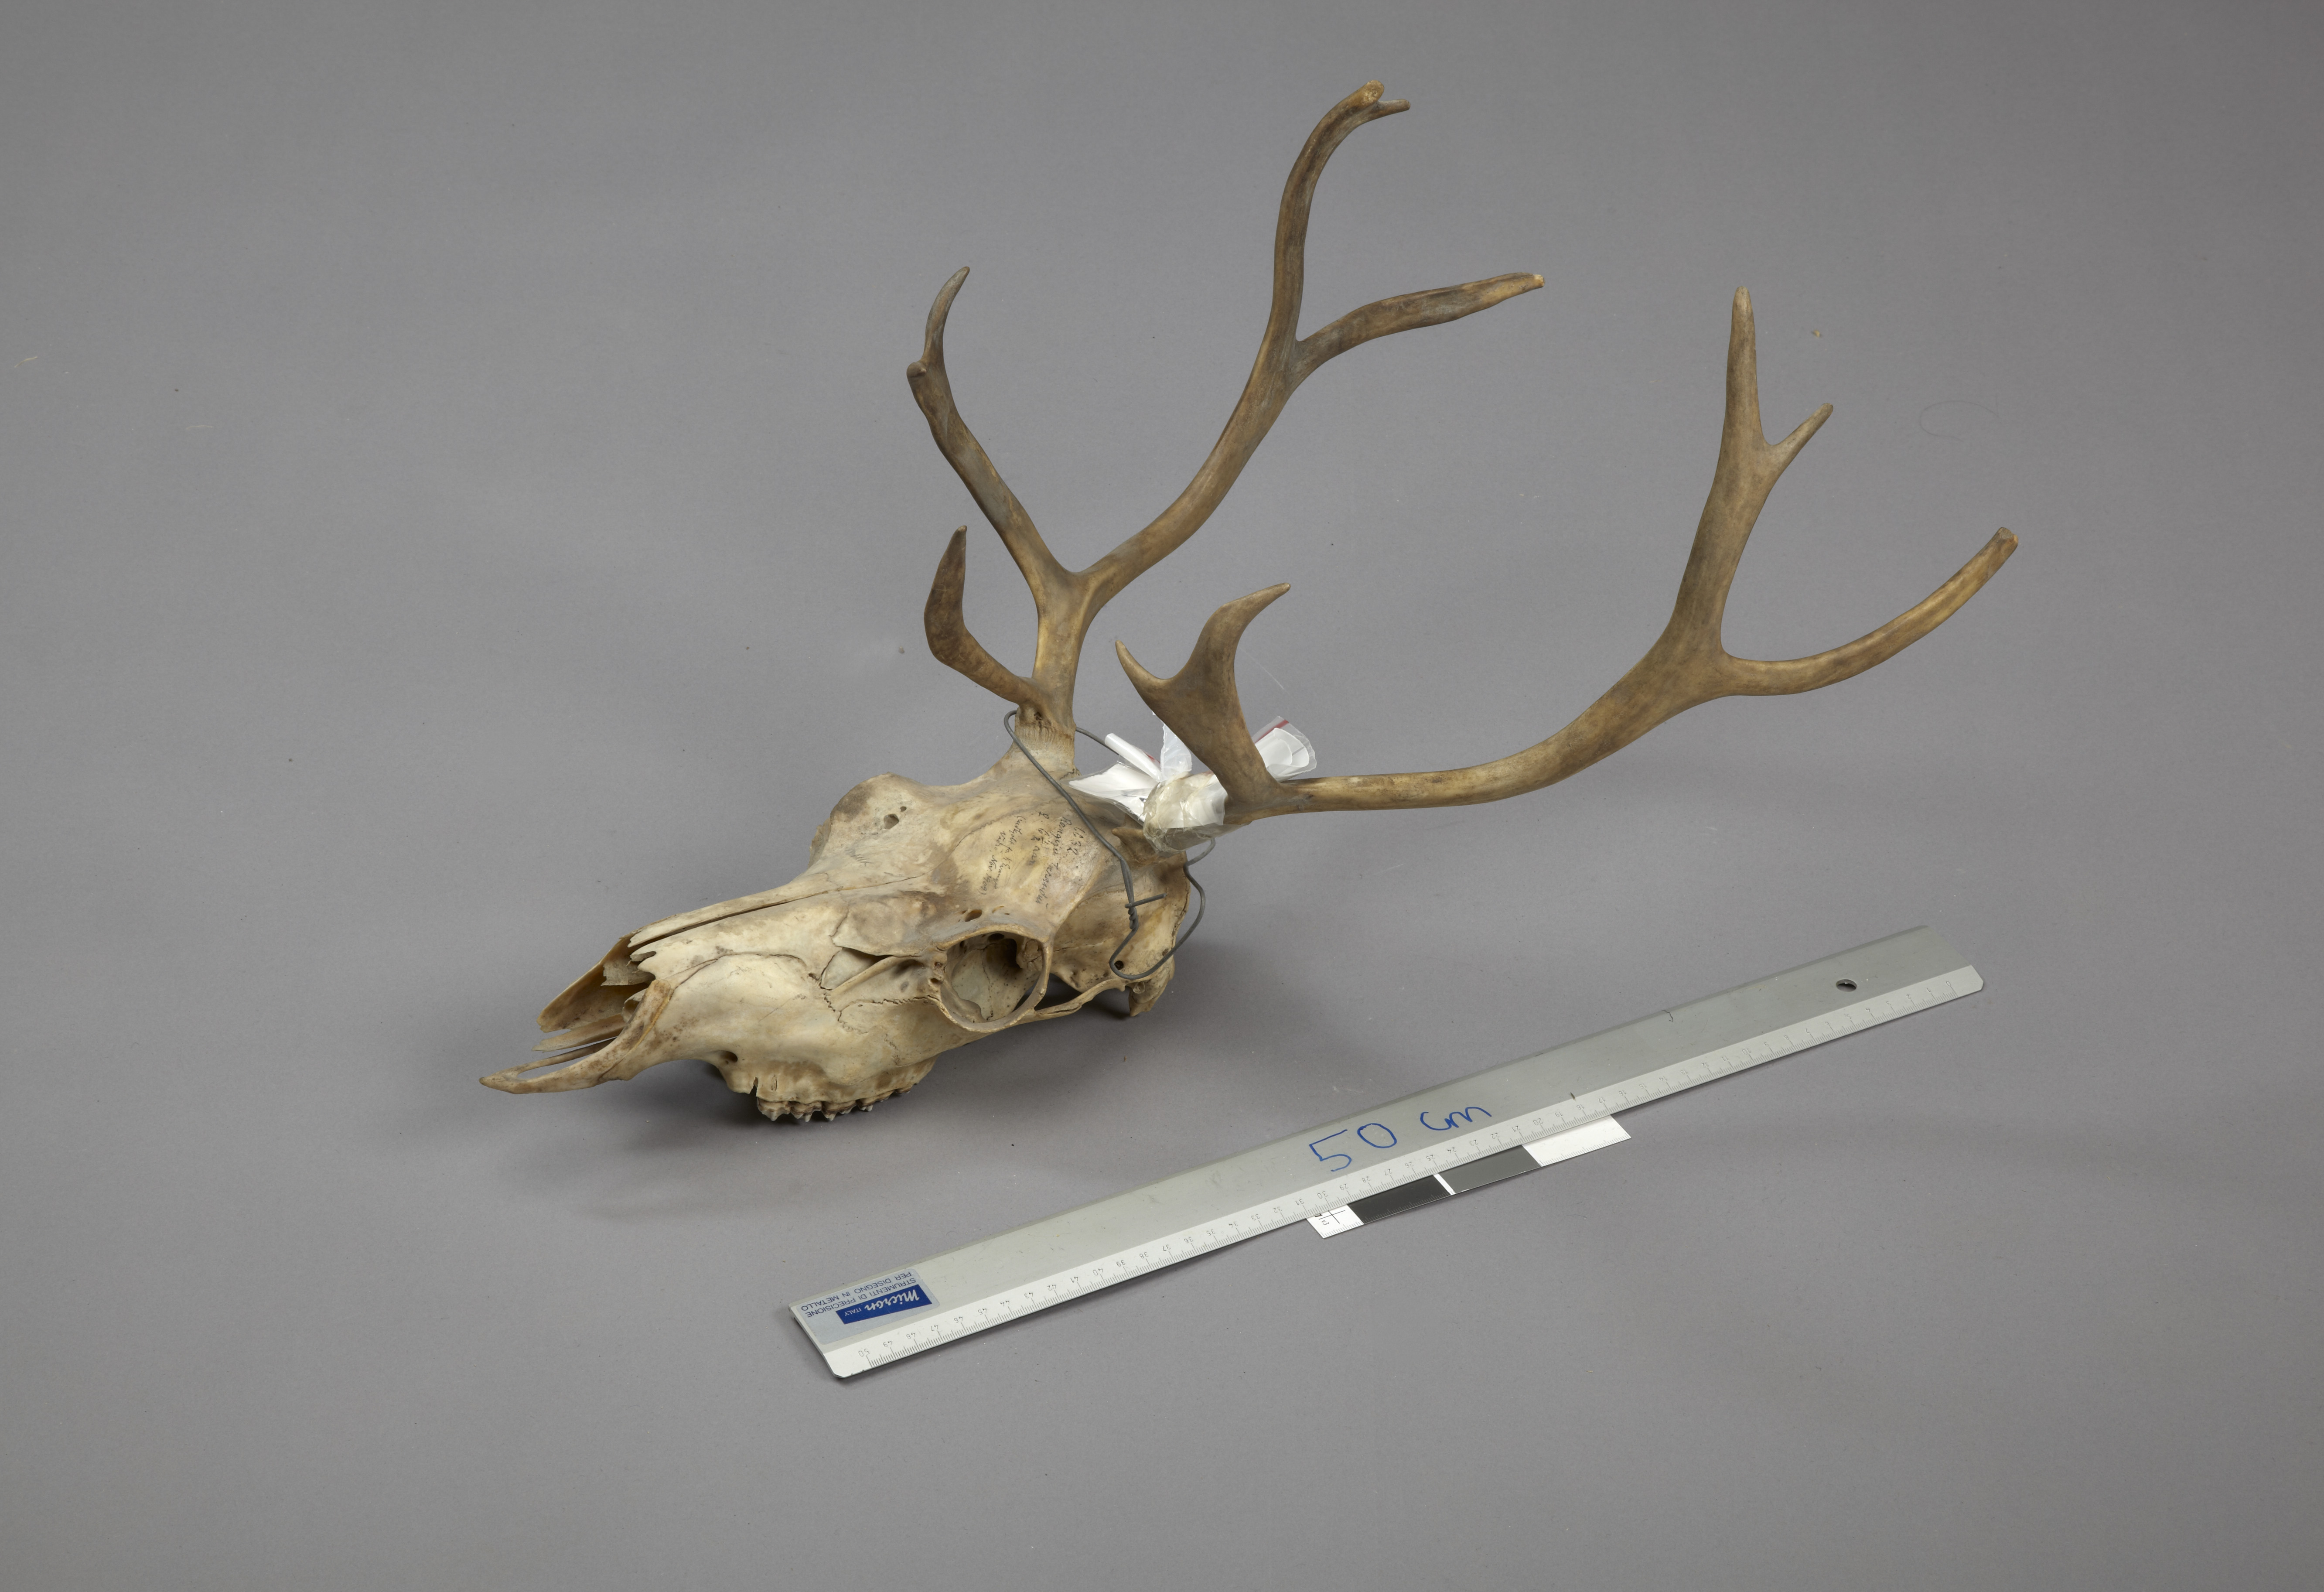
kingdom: Animalia
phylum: Chordata
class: Mammalia
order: Artiodactyla
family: Cervidae
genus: Rangifer
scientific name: Rangifer tarandus
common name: Reindeer
